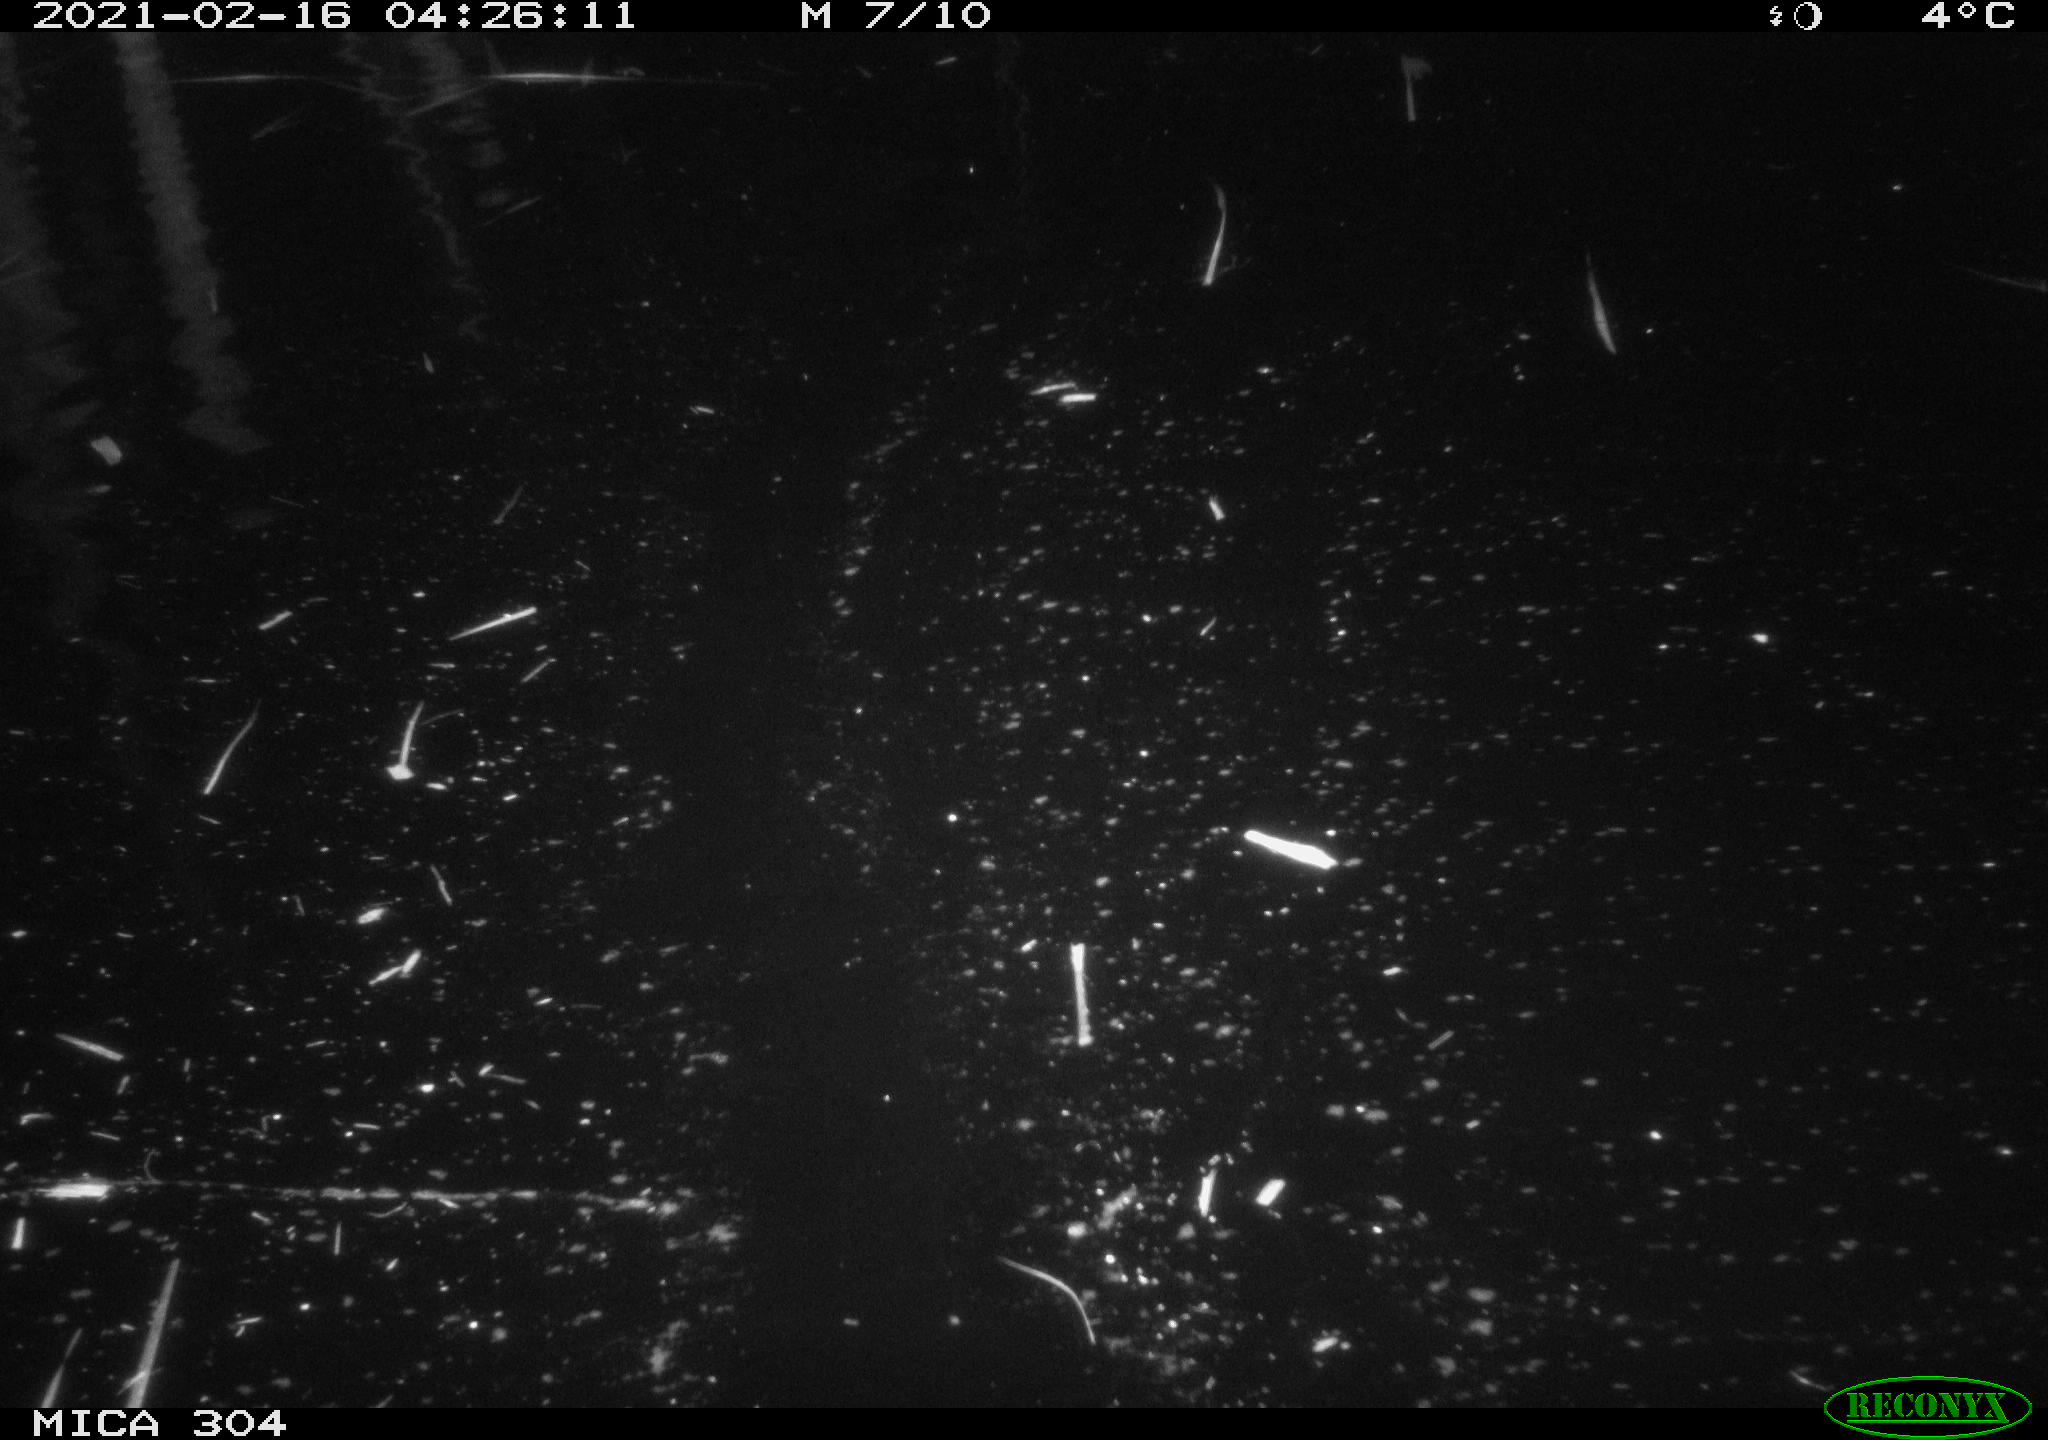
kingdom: Animalia
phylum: Chordata
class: Mammalia
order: Rodentia
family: Cricetidae
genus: Ondatra
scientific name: Ondatra zibethicus
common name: Muskrat
